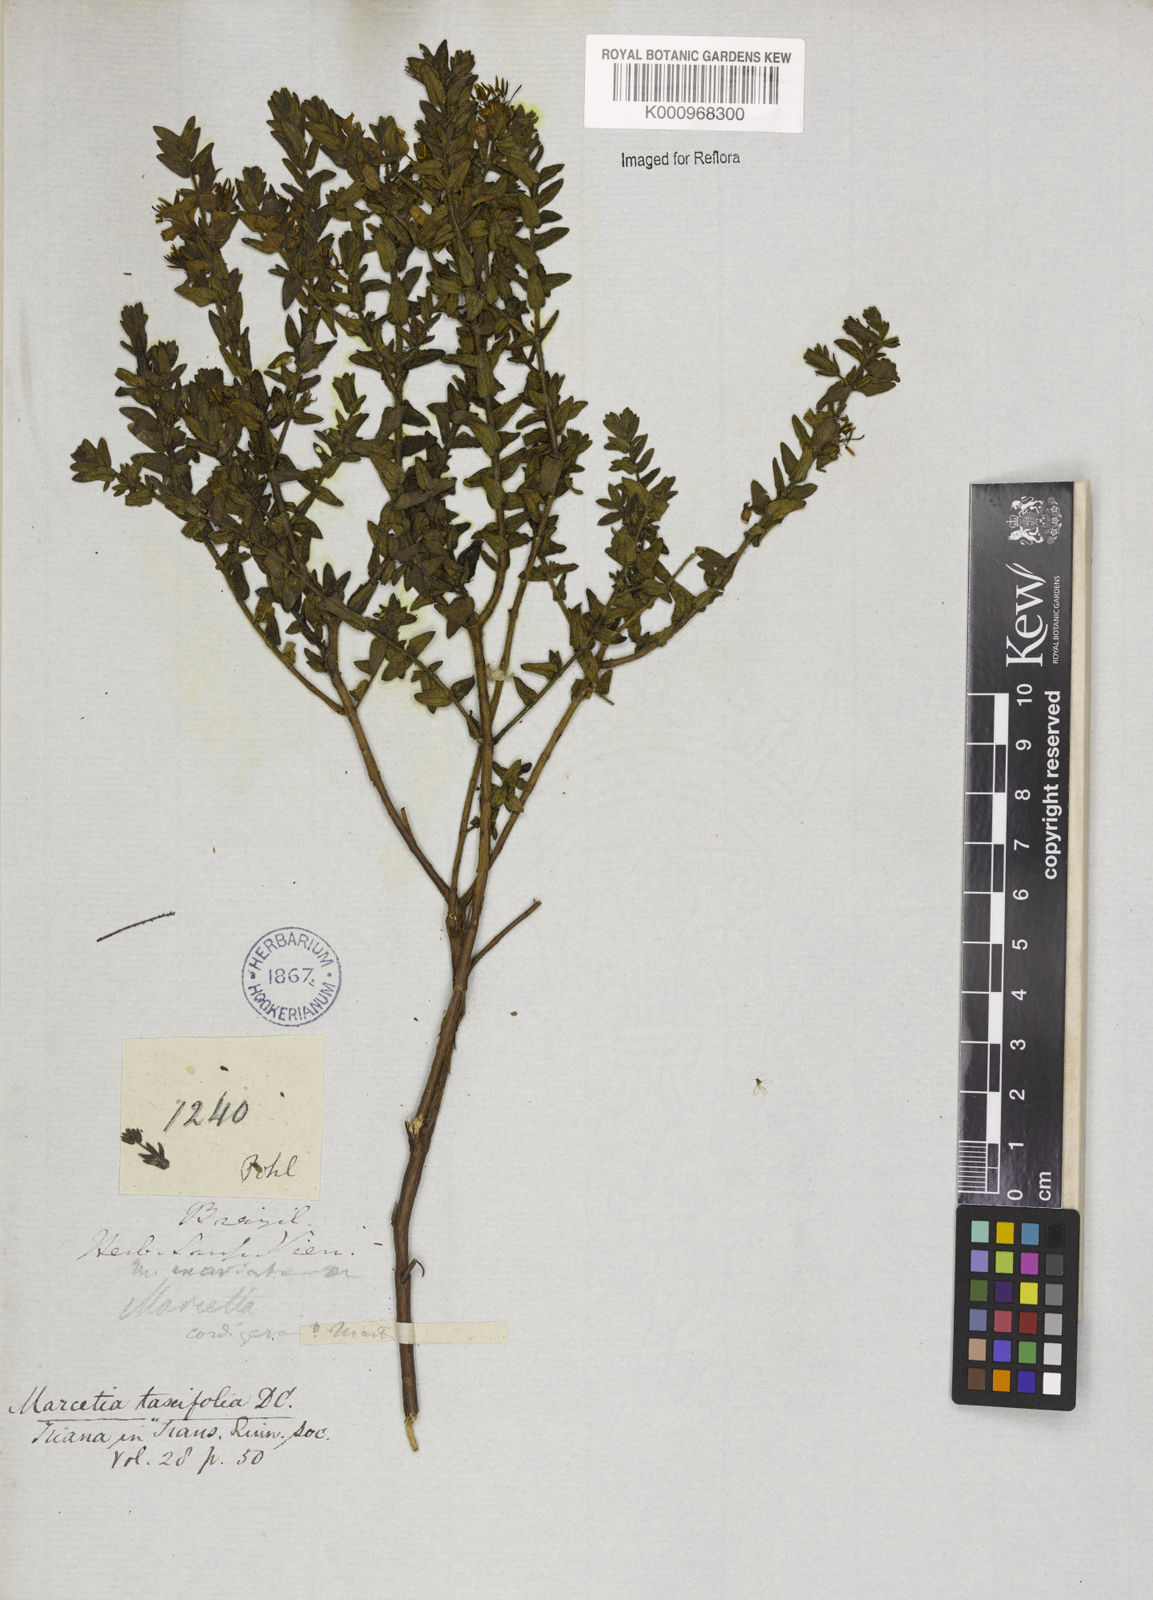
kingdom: Plantae
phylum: Tracheophyta
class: Magnoliopsida
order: Myrtales
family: Melastomataceae
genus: Marcetia
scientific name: Marcetia taxifolia
